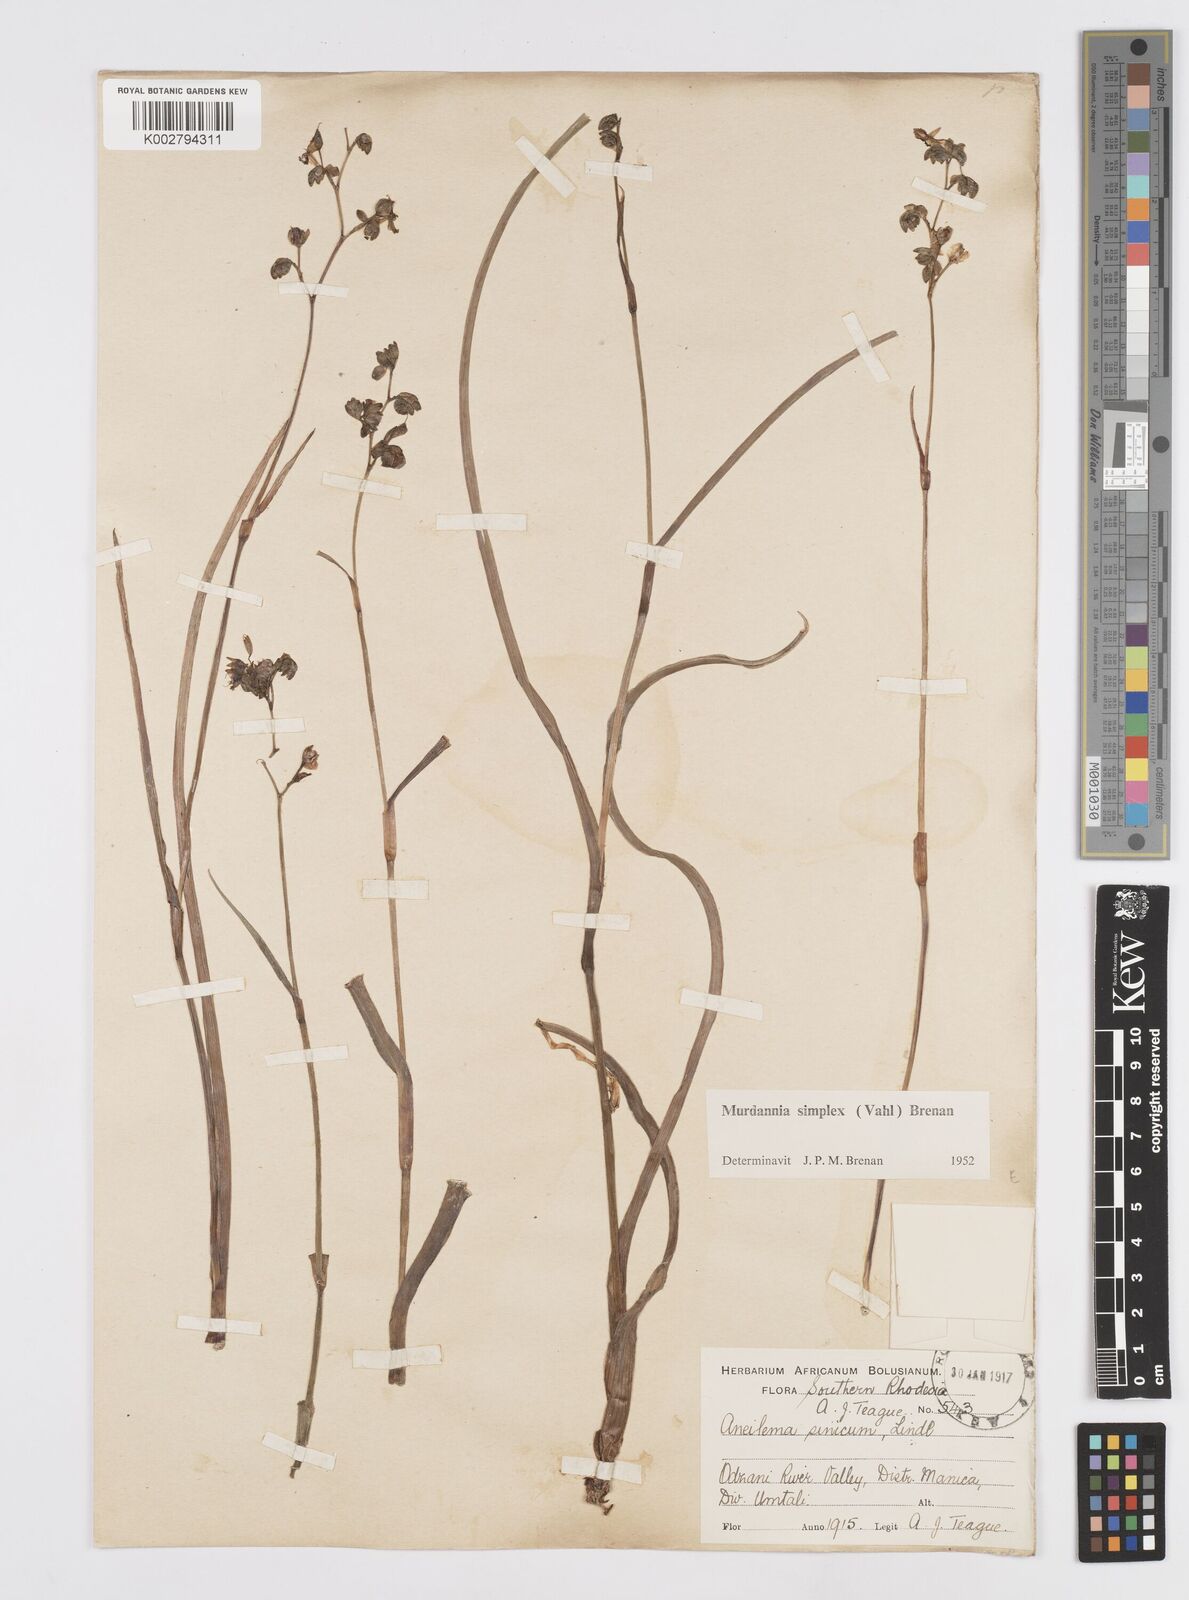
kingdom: Plantae
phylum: Tracheophyta
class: Liliopsida
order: Commelinales
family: Commelinaceae
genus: Murdannia
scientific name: Murdannia simplex
